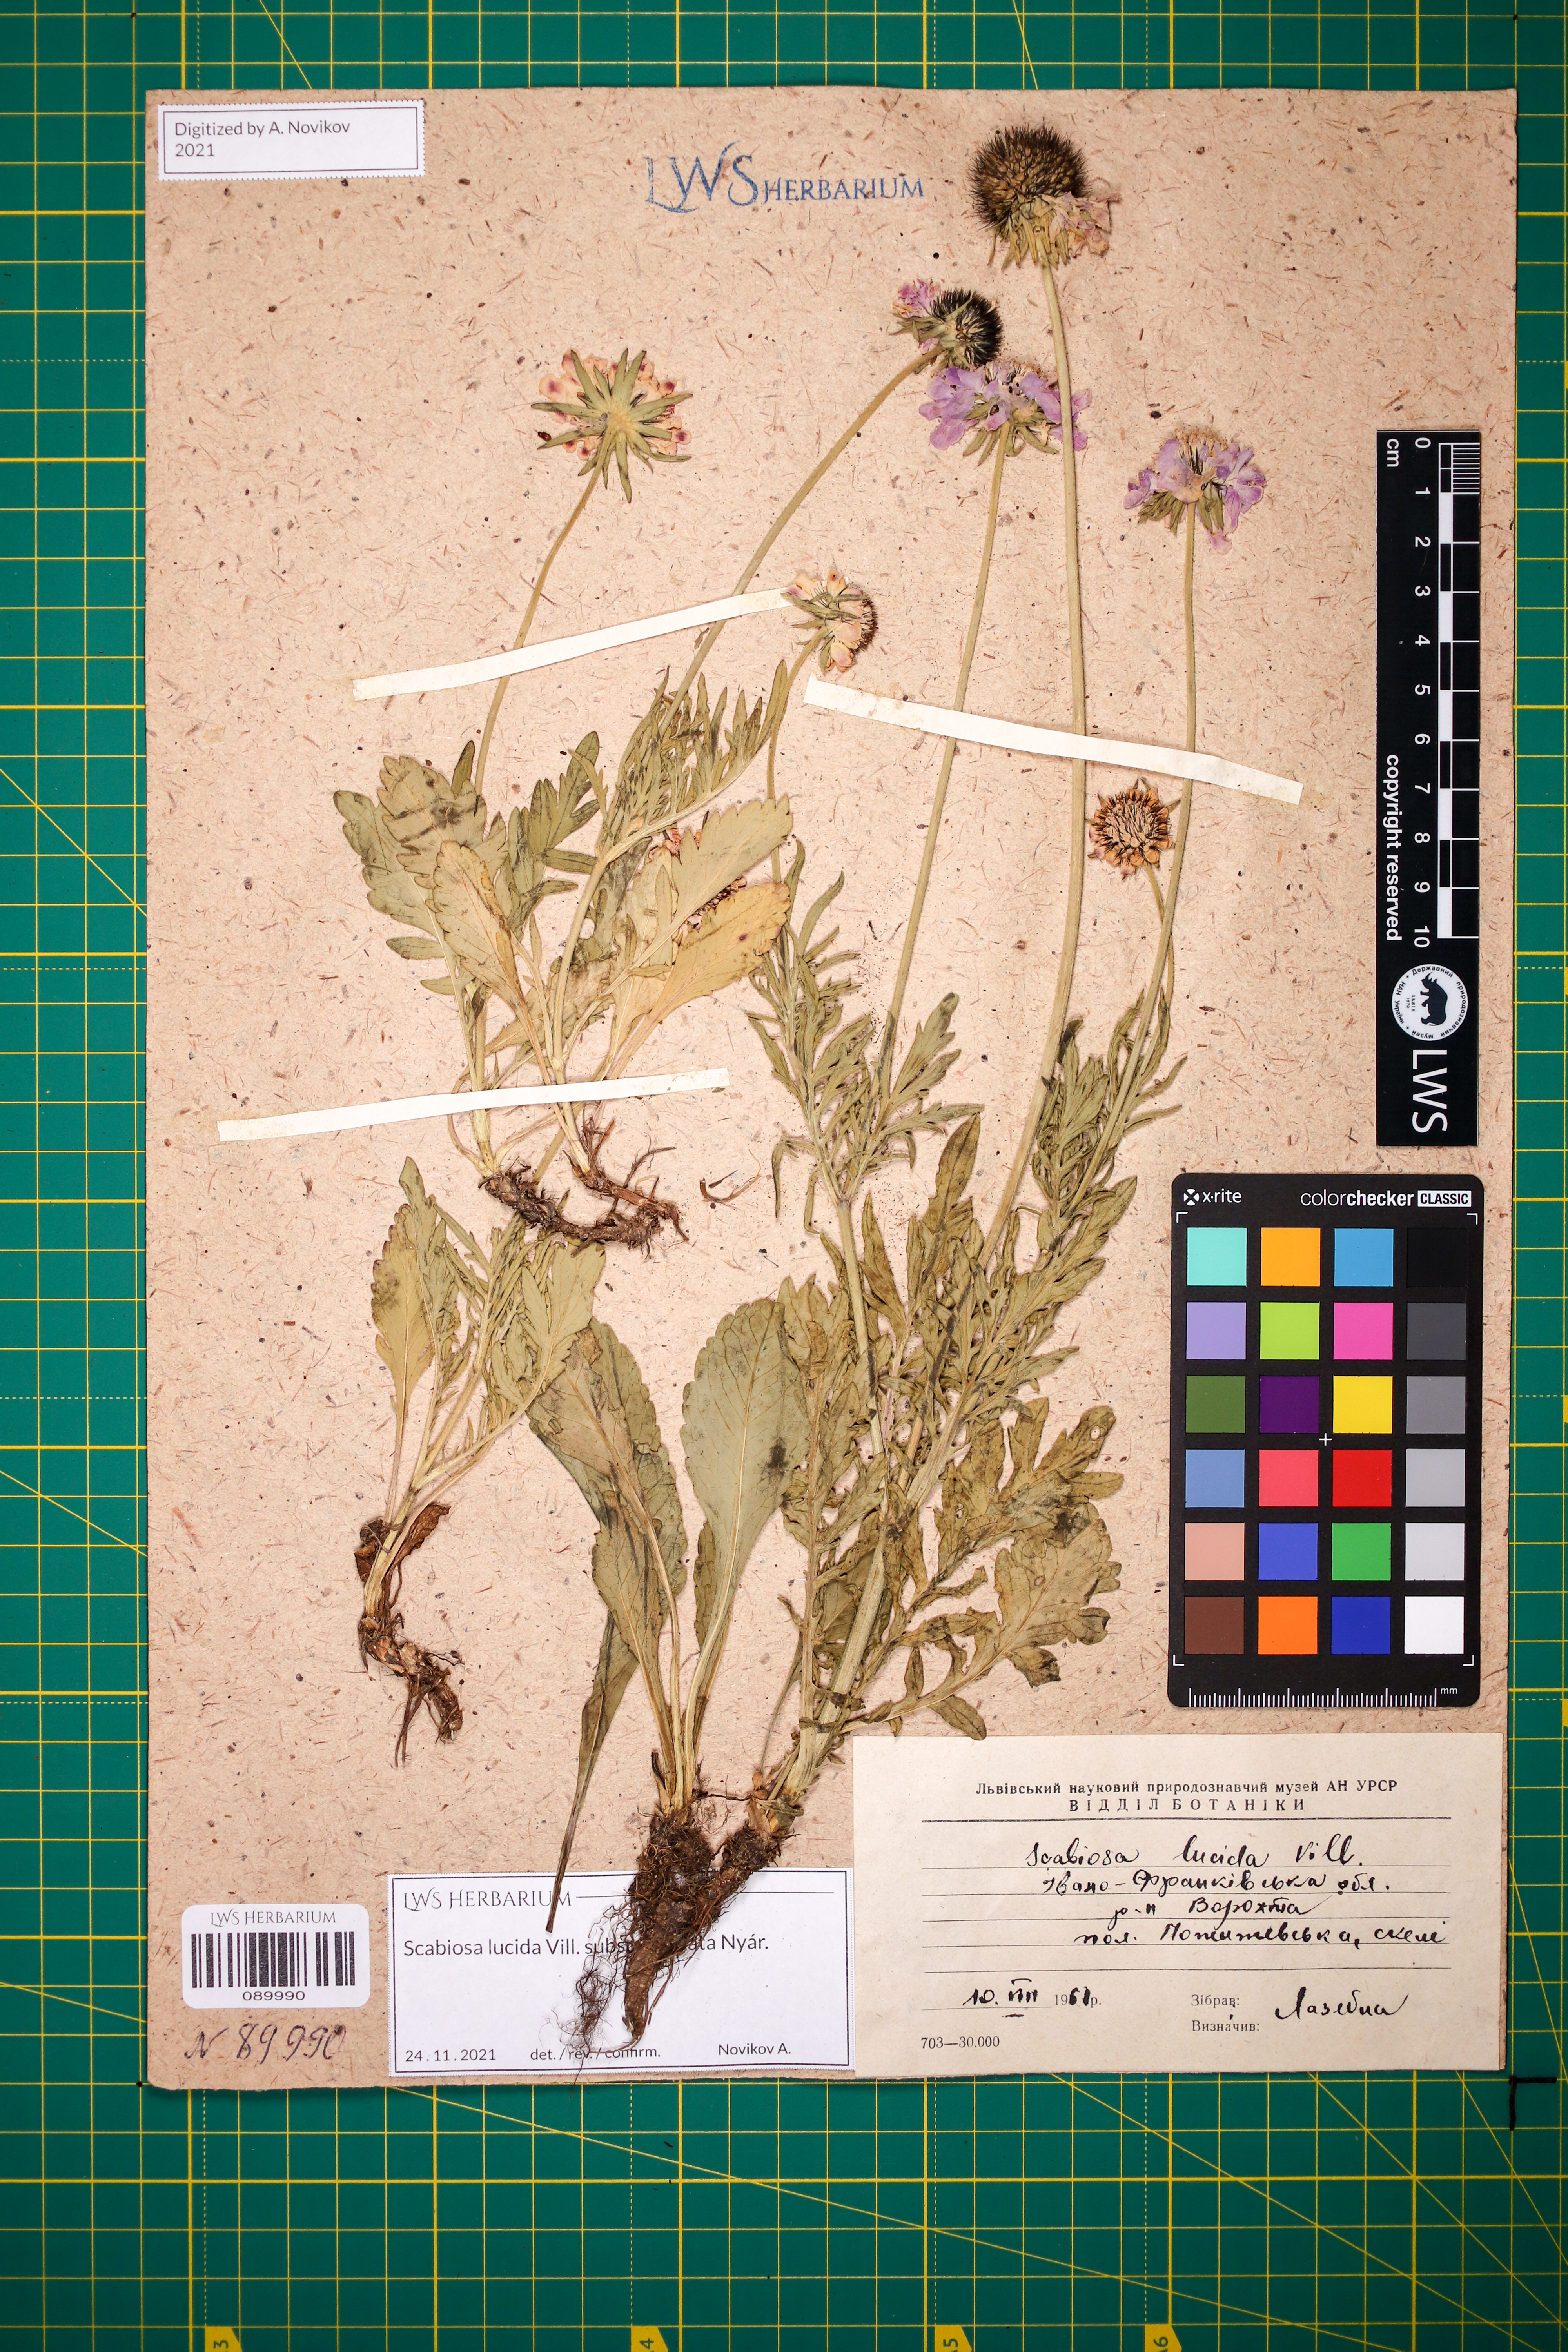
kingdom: Plantae
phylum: Tracheophyta
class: Magnoliopsida
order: Dipsacales
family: Caprifoliaceae
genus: Scabiosa
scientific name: Scabiosa lucida
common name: Shining scabious
